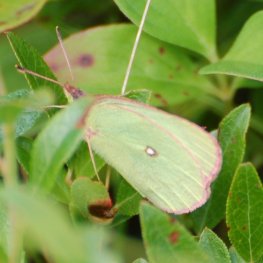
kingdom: Animalia
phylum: Arthropoda
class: Insecta
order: Lepidoptera
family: Pieridae
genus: Colias
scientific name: Colias interior
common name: Pink-edged Sulphur
